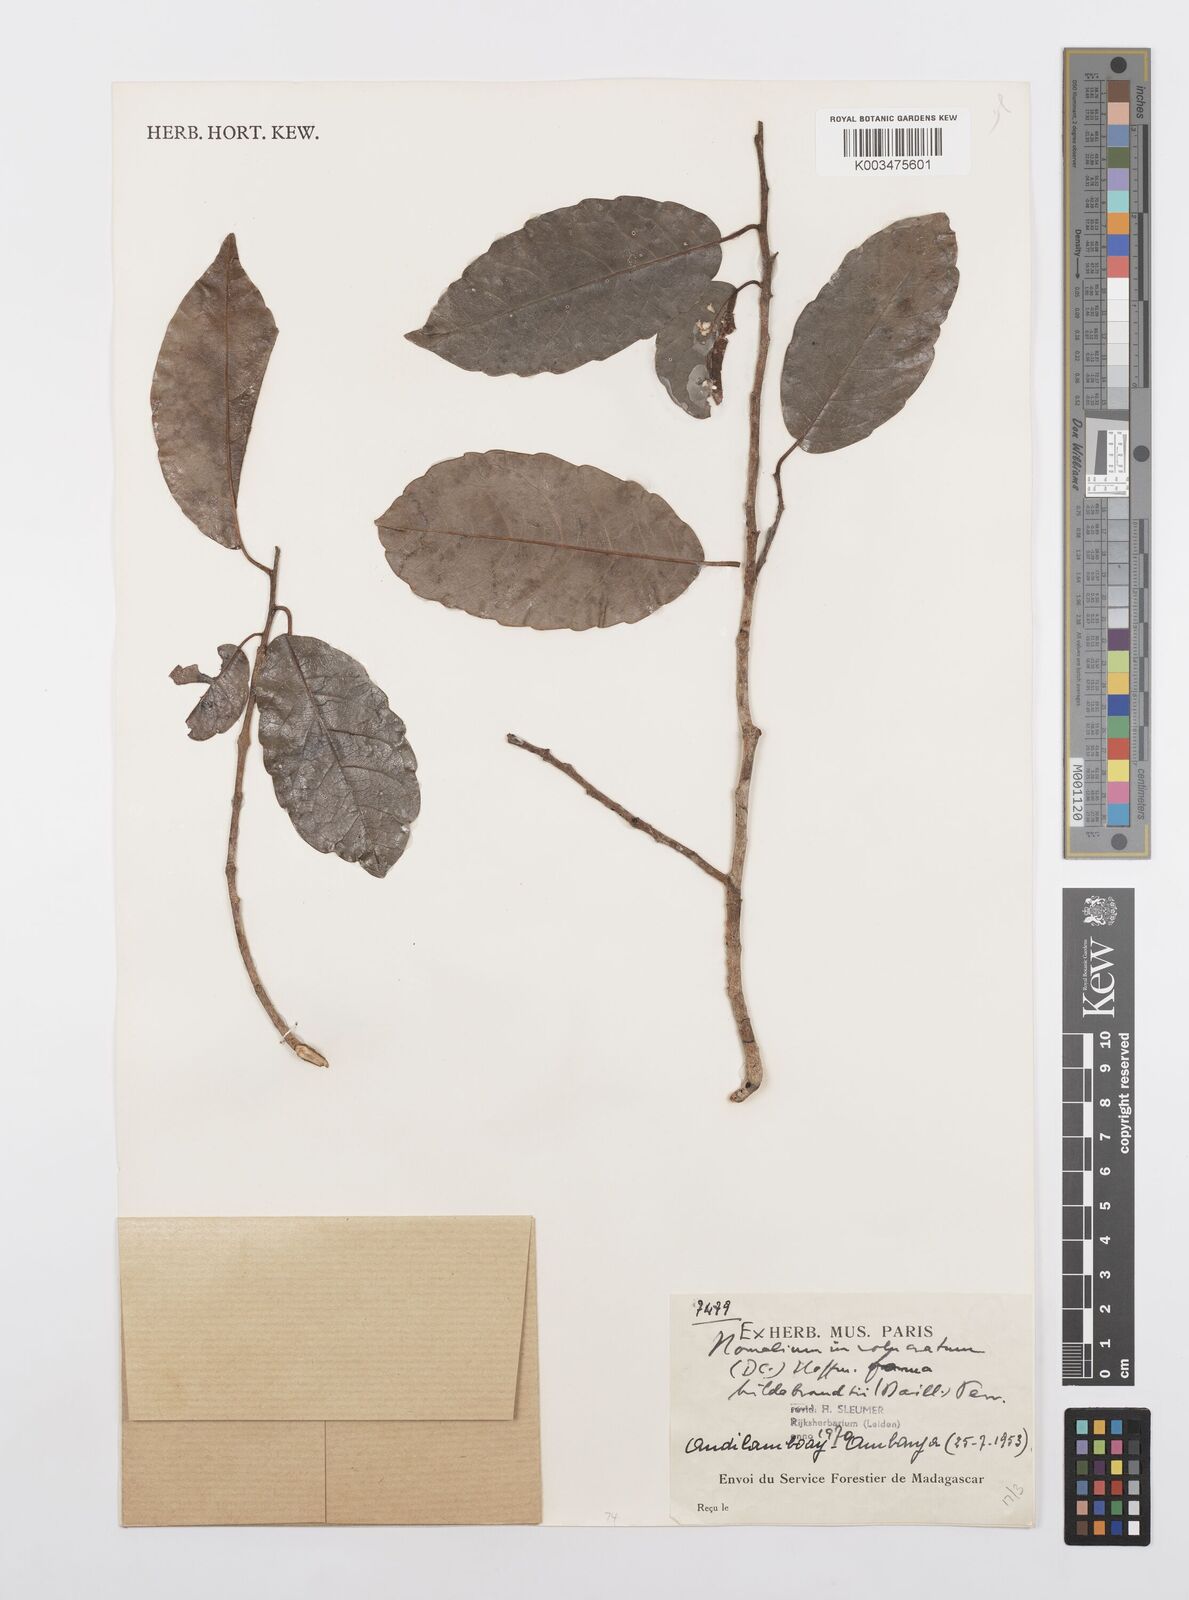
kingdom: Plantae
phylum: Tracheophyta
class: Magnoliopsida
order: Malpighiales
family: Salicaceae
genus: Homalium
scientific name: Homalium involucratum
